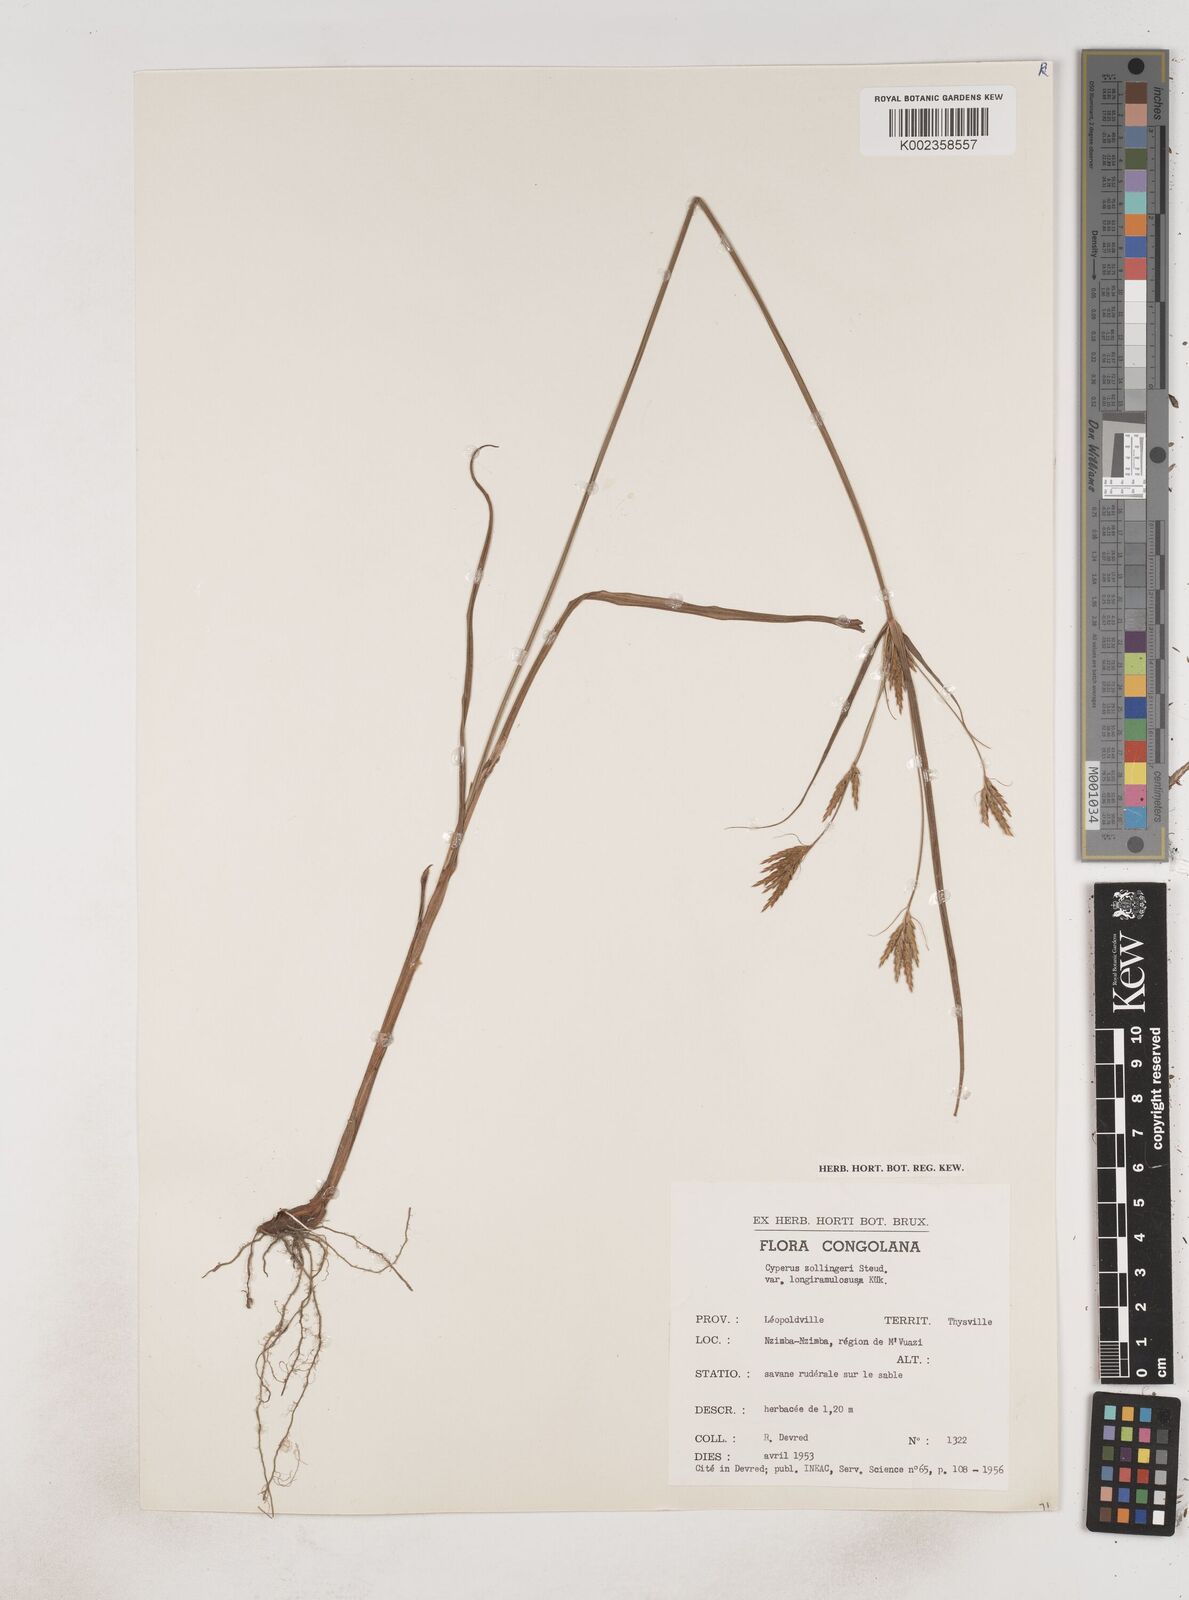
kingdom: Plantae
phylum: Tracheophyta
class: Liliopsida
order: Poales
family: Cyperaceae
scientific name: Cyperaceae
